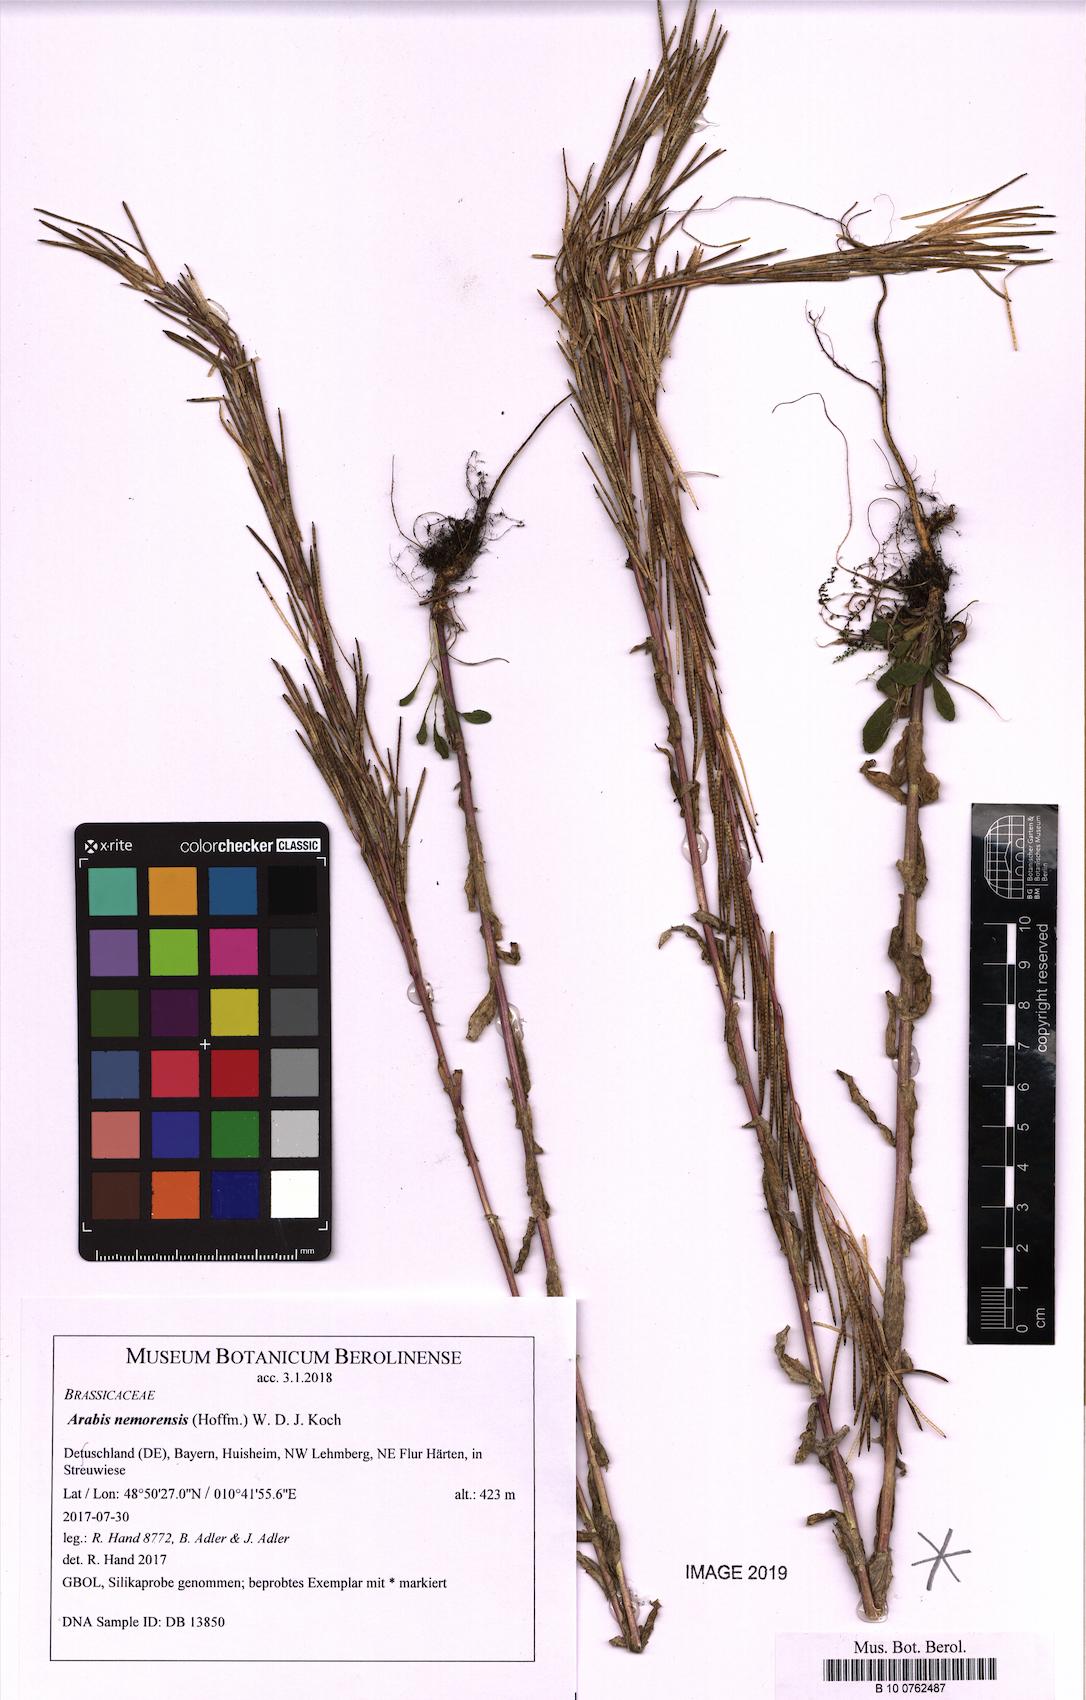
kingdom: Plantae
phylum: Tracheophyta
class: Magnoliopsida
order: Brassicales
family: Brassicaceae
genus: Arabis
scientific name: Arabis planisiliqua
